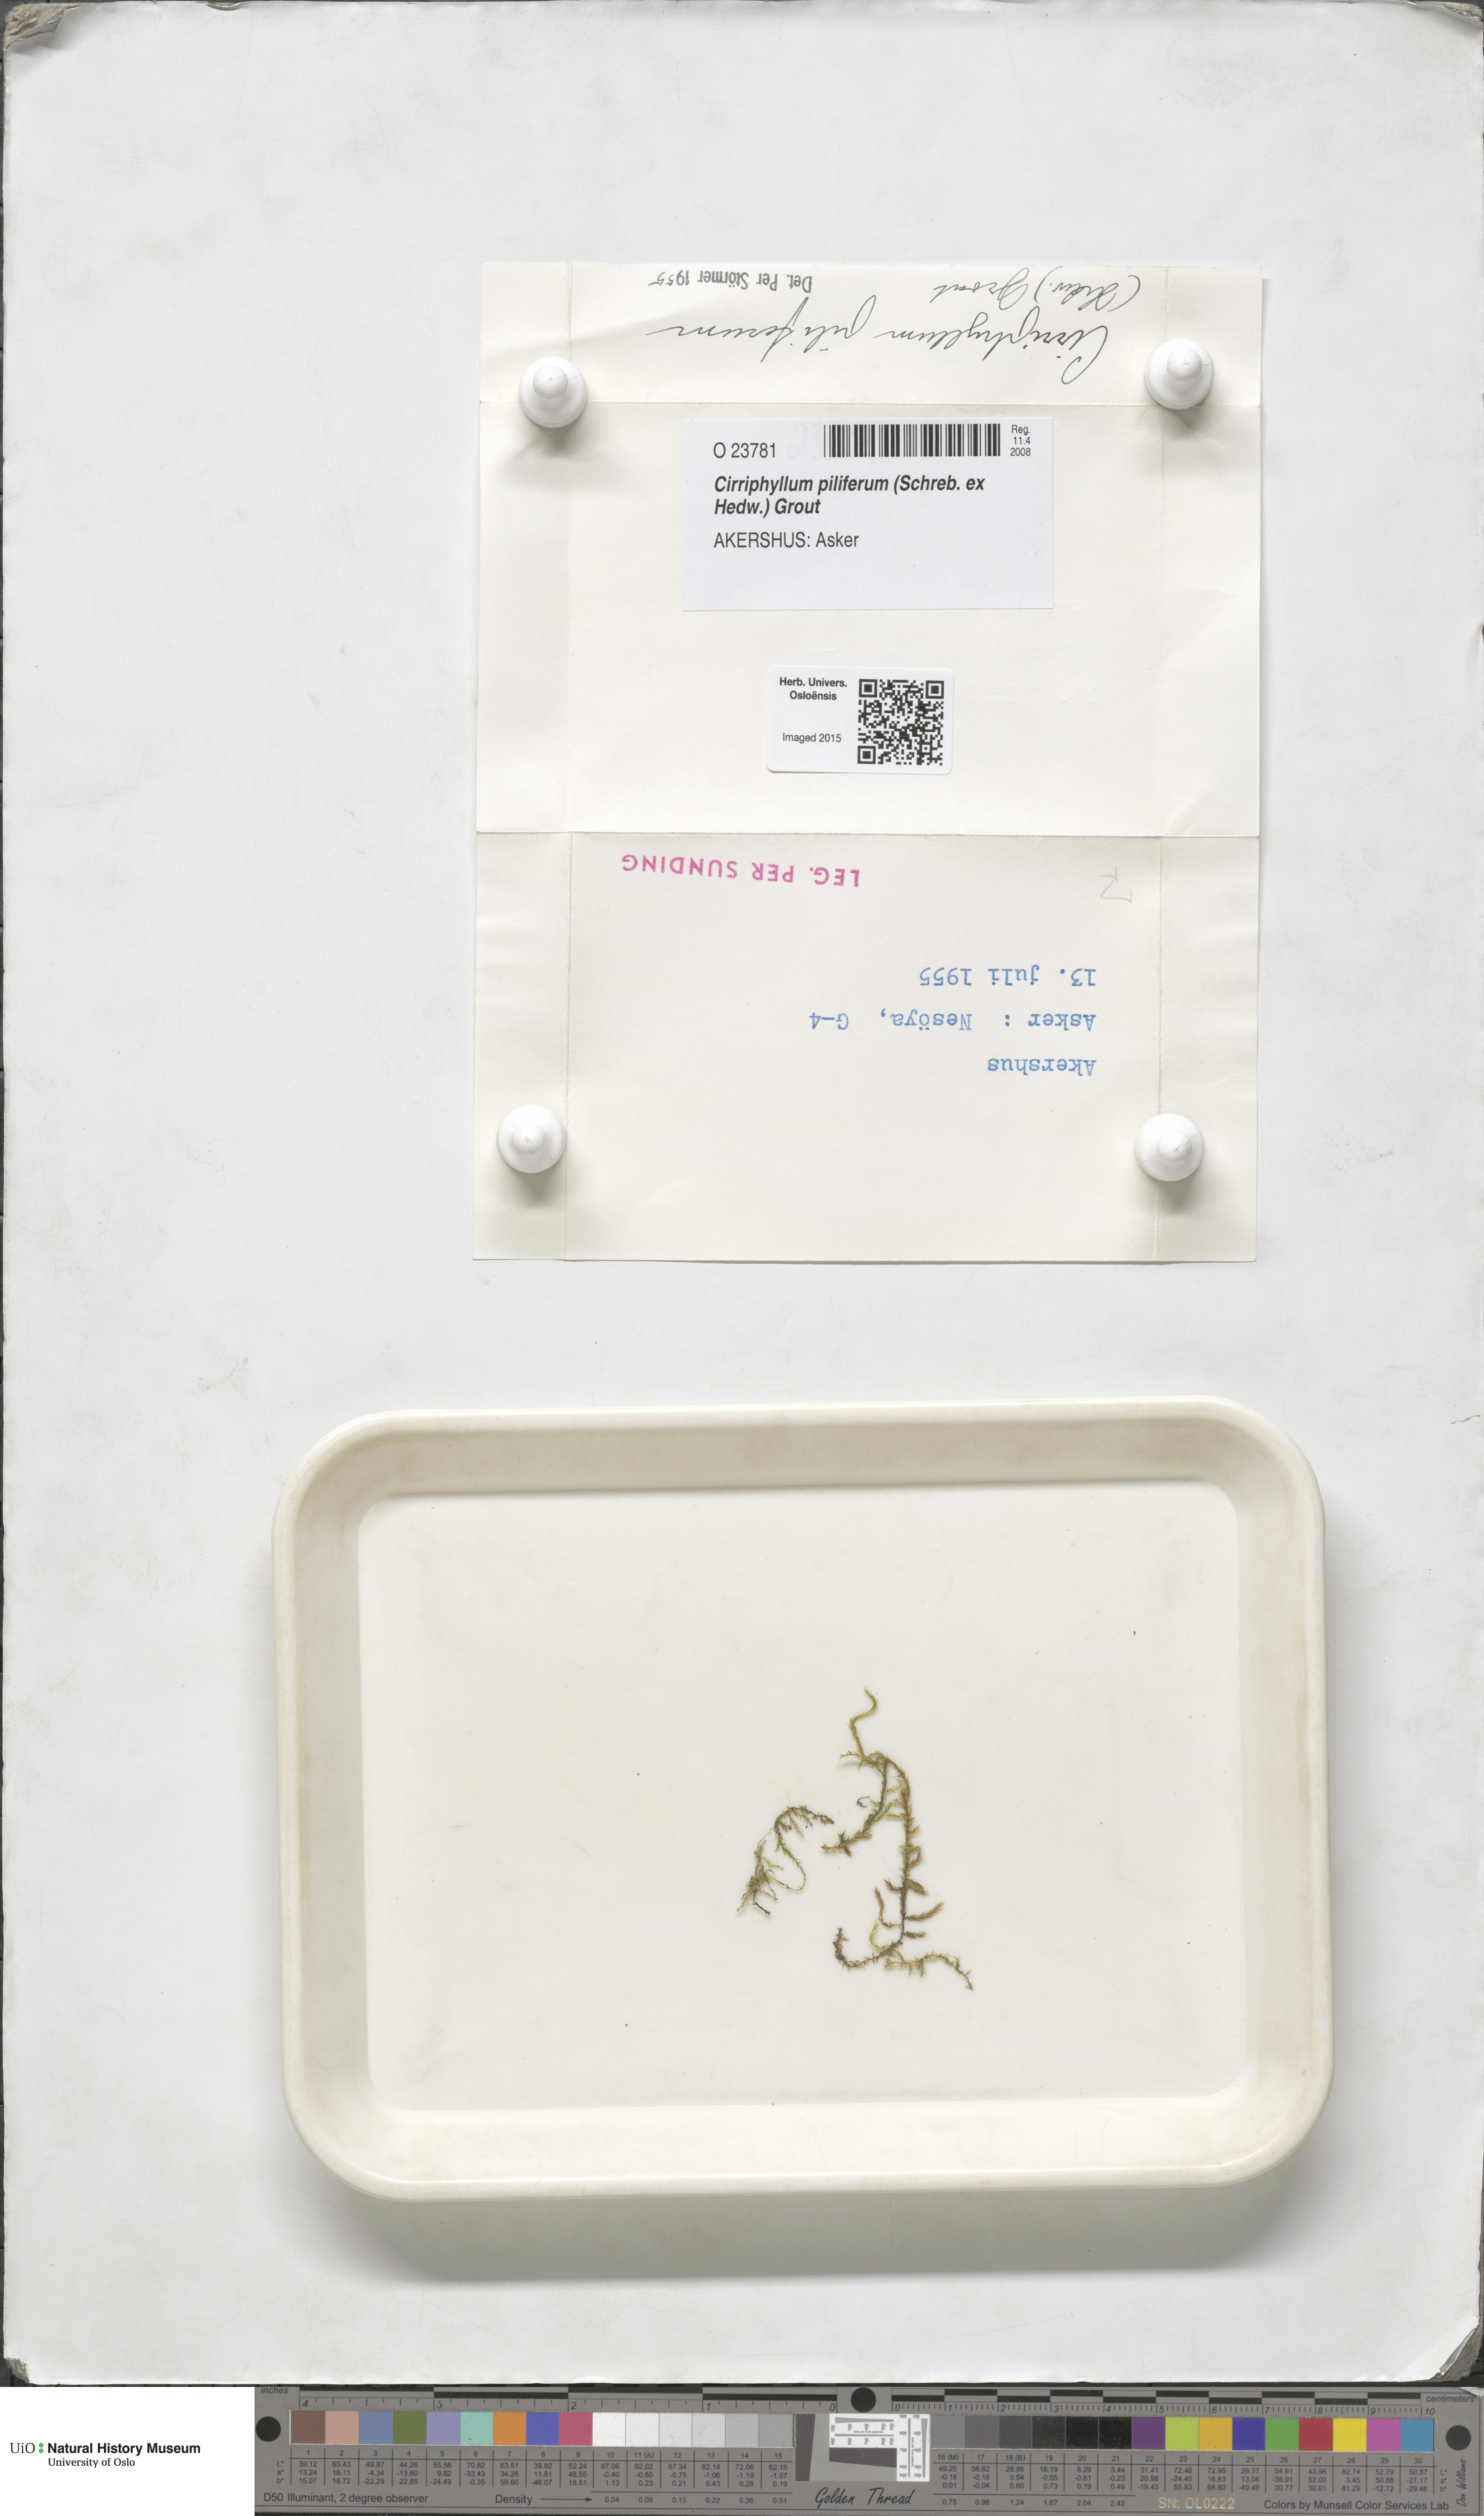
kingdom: Plantae
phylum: Bryophyta
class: Bryopsida
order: Hypnales
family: Brachytheciaceae
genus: Cirriphyllum
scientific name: Cirriphyllum piliferum
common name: Hair-pointed moss
